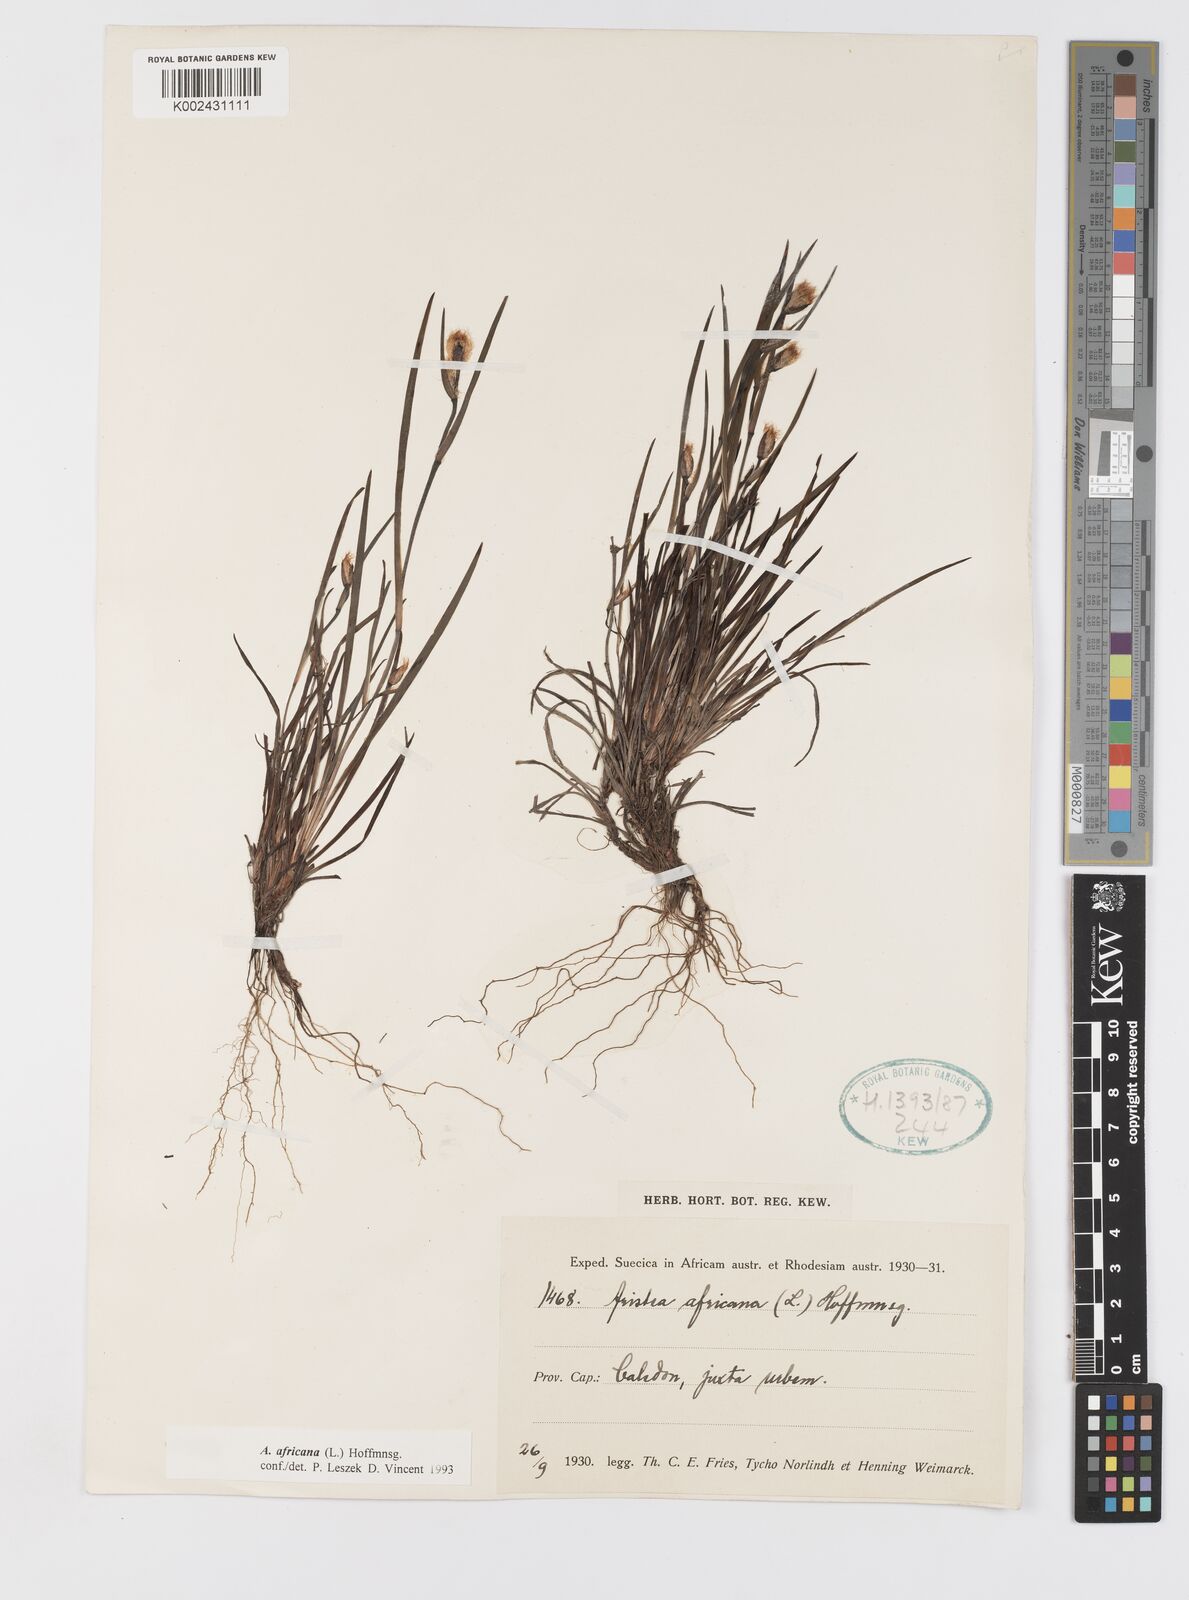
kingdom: Plantae
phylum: Tracheophyta
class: Liliopsida
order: Asparagales
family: Iridaceae
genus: Aristea
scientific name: Aristea africana
